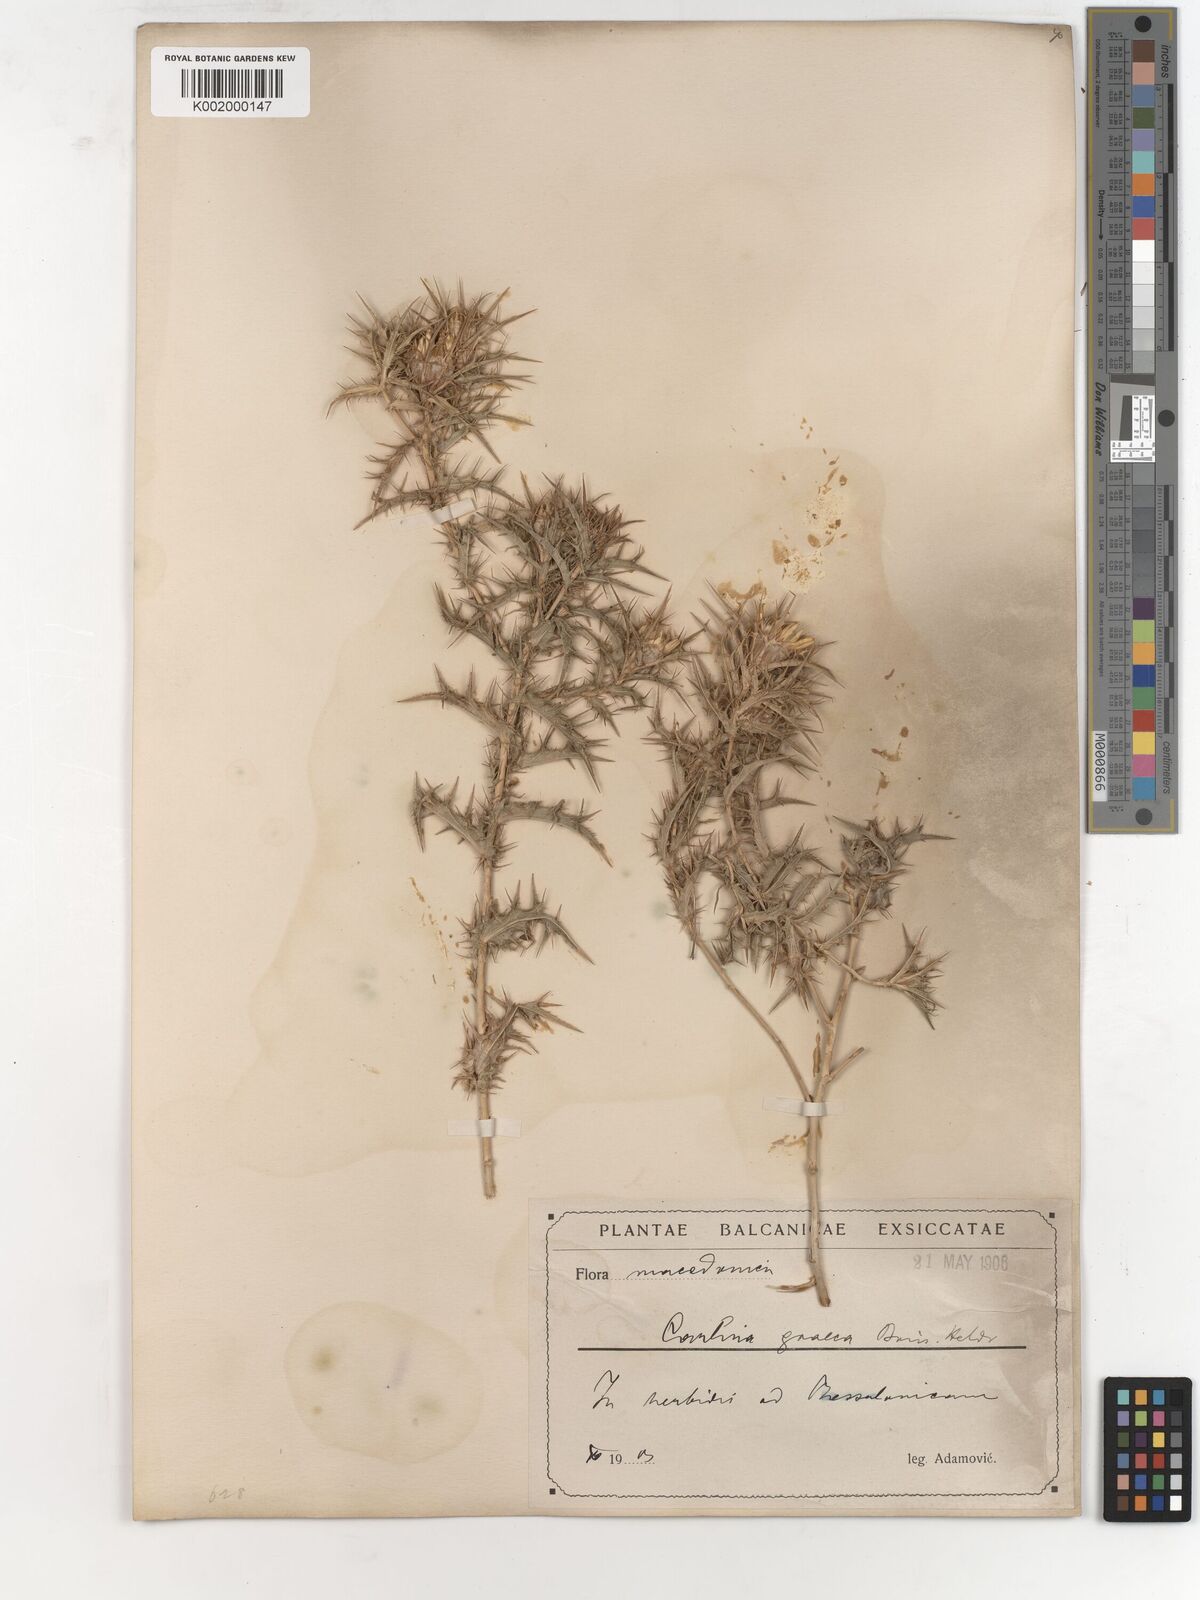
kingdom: Plantae
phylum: Tracheophyta
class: Magnoliopsida
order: Asterales
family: Asteraceae
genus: Carlina
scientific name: Carlina corymbosa
